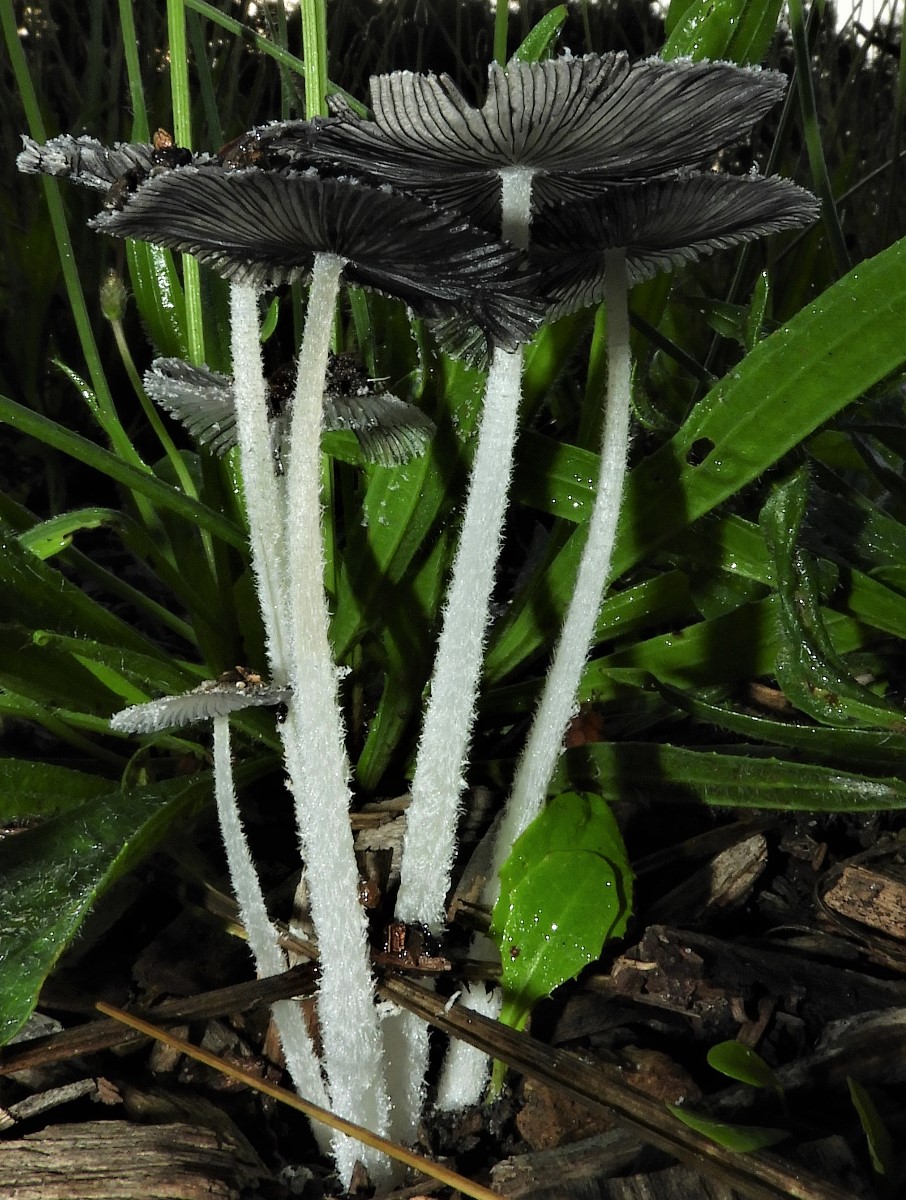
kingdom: Fungi
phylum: Basidiomycota
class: Agaricomycetes
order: Agaricales
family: Psathyrellaceae
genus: Coprinopsis
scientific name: Coprinopsis lagopus
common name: dunstokket blækhat
